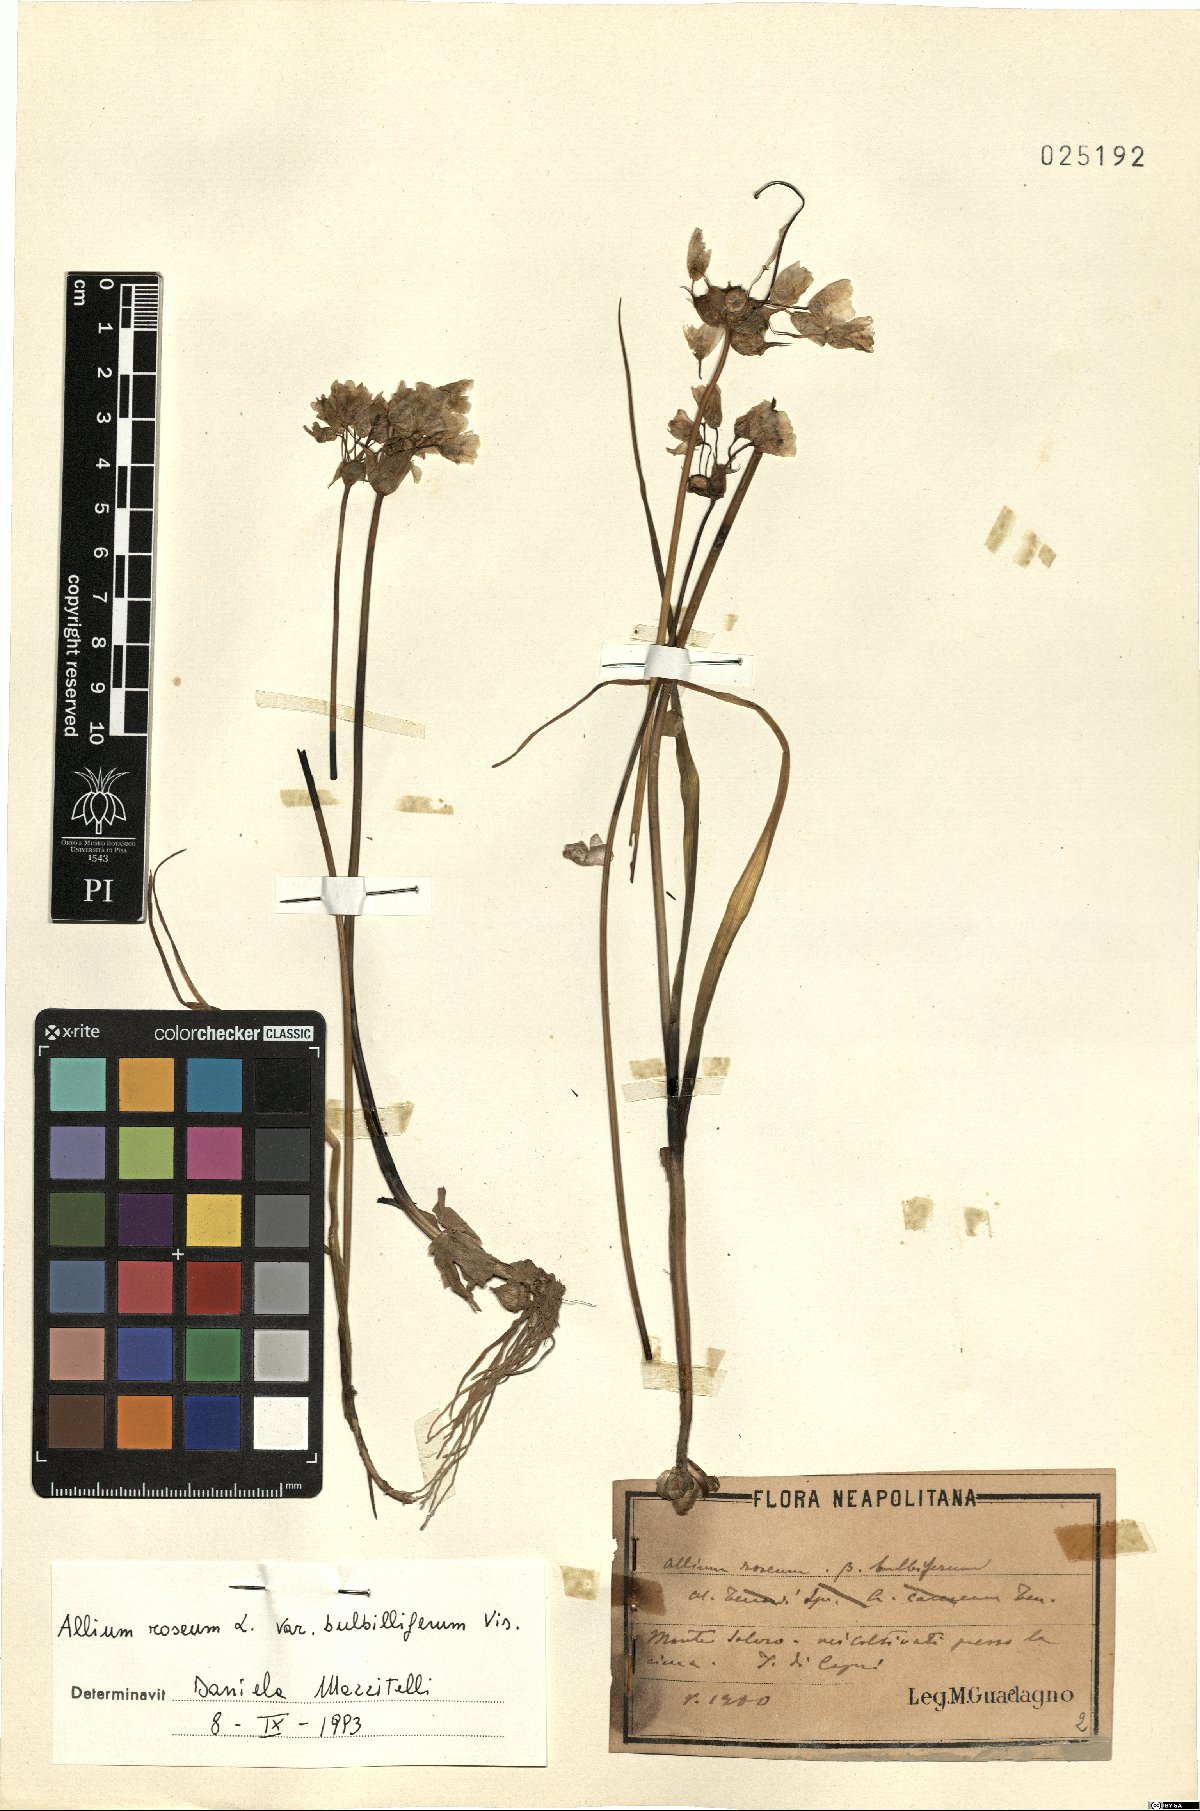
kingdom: Plantae
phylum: Tracheophyta
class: Liliopsida
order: Asparagales
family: Amaryllidaceae
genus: Allium
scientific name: Allium roseum
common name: Rosy garlic
